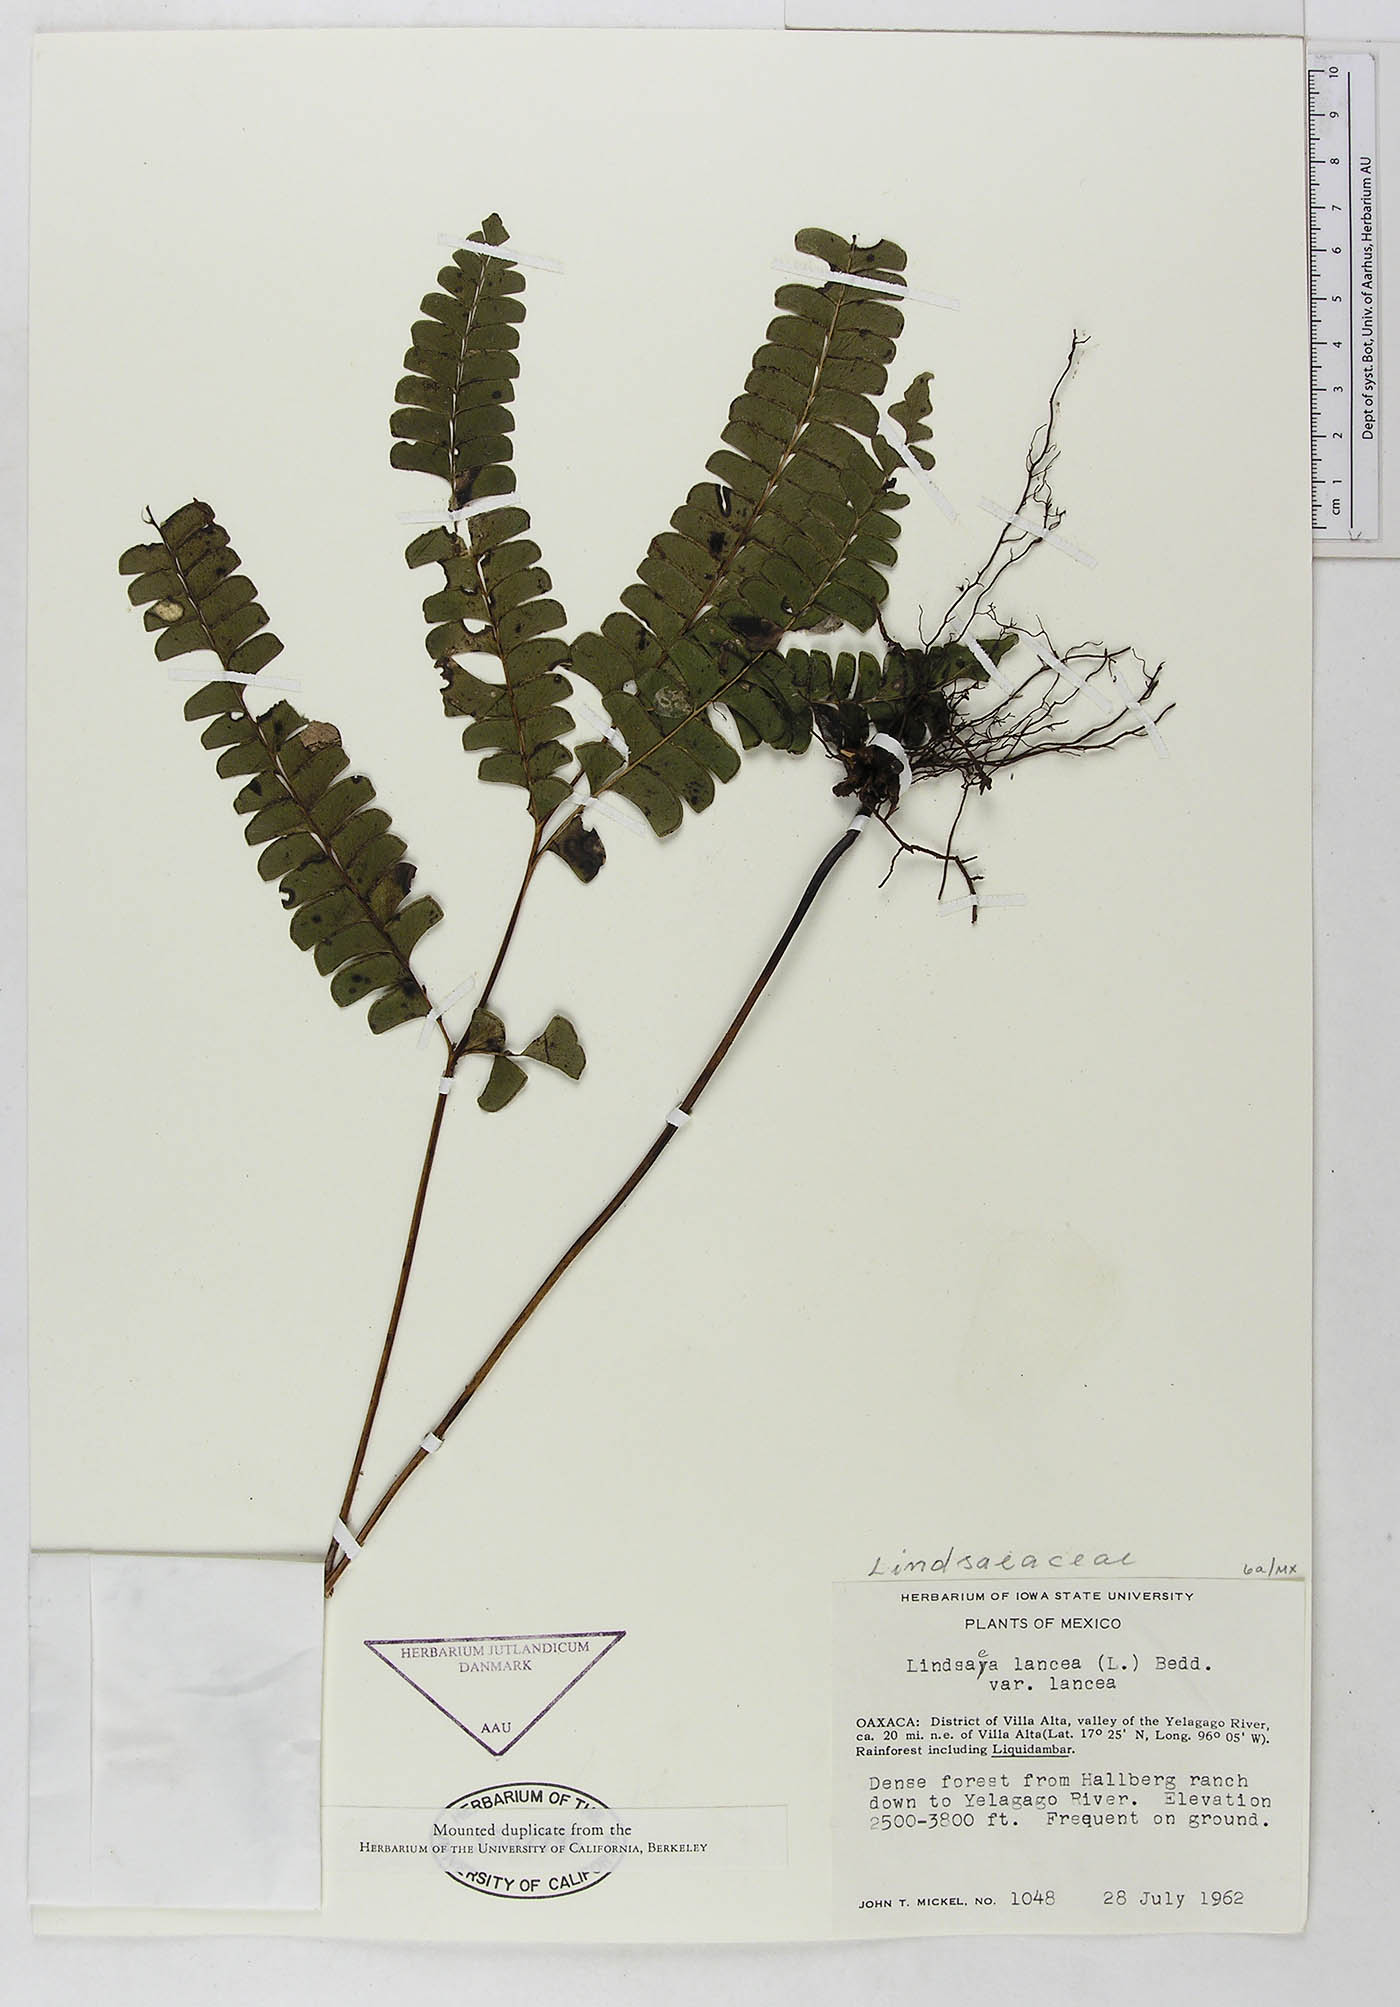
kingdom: Plantae
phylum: Tracheophyta
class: Polypodiopsida
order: Polypodiales
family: Dennstaedtiaceae
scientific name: Dennstaedtiaceae
